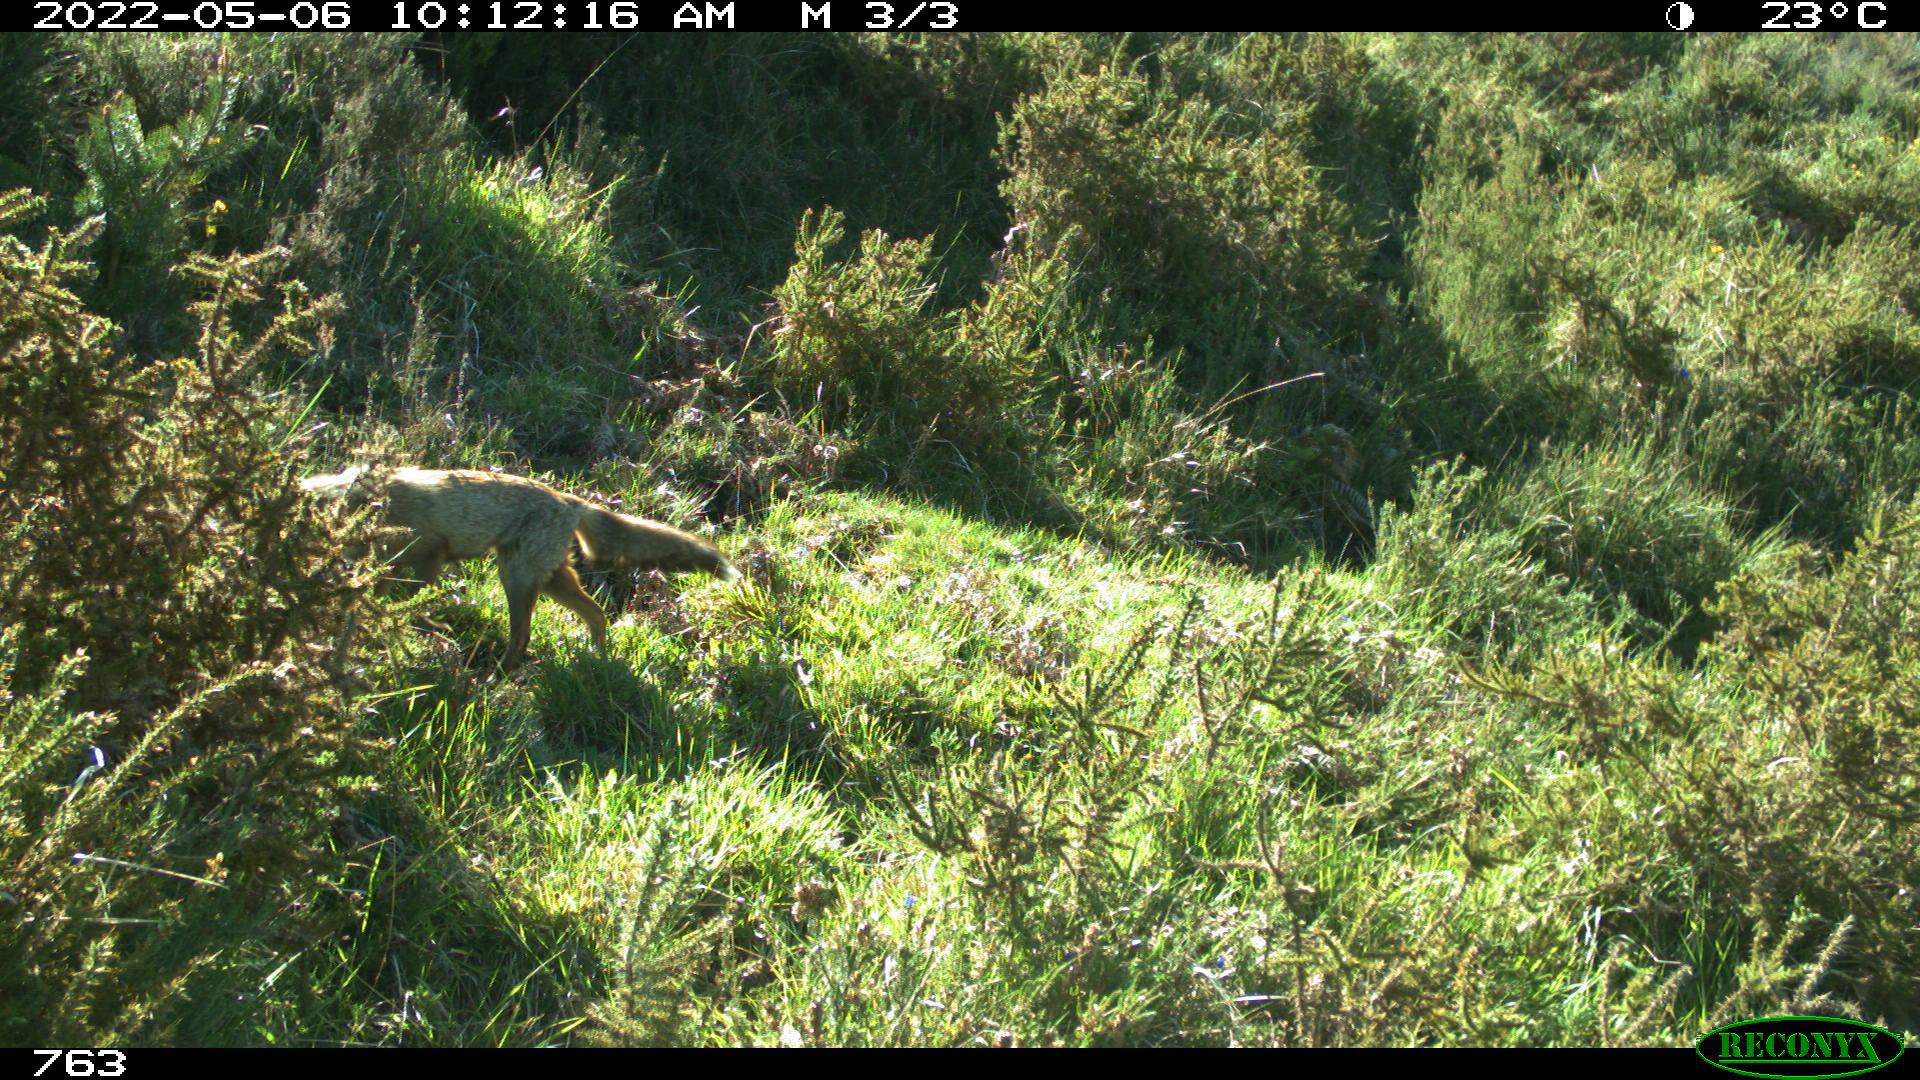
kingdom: Animalia
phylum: Chordata
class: Mammalia
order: Carnivora
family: Canidae
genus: Vulpes
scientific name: Vulpes vulpes
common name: Red fox
